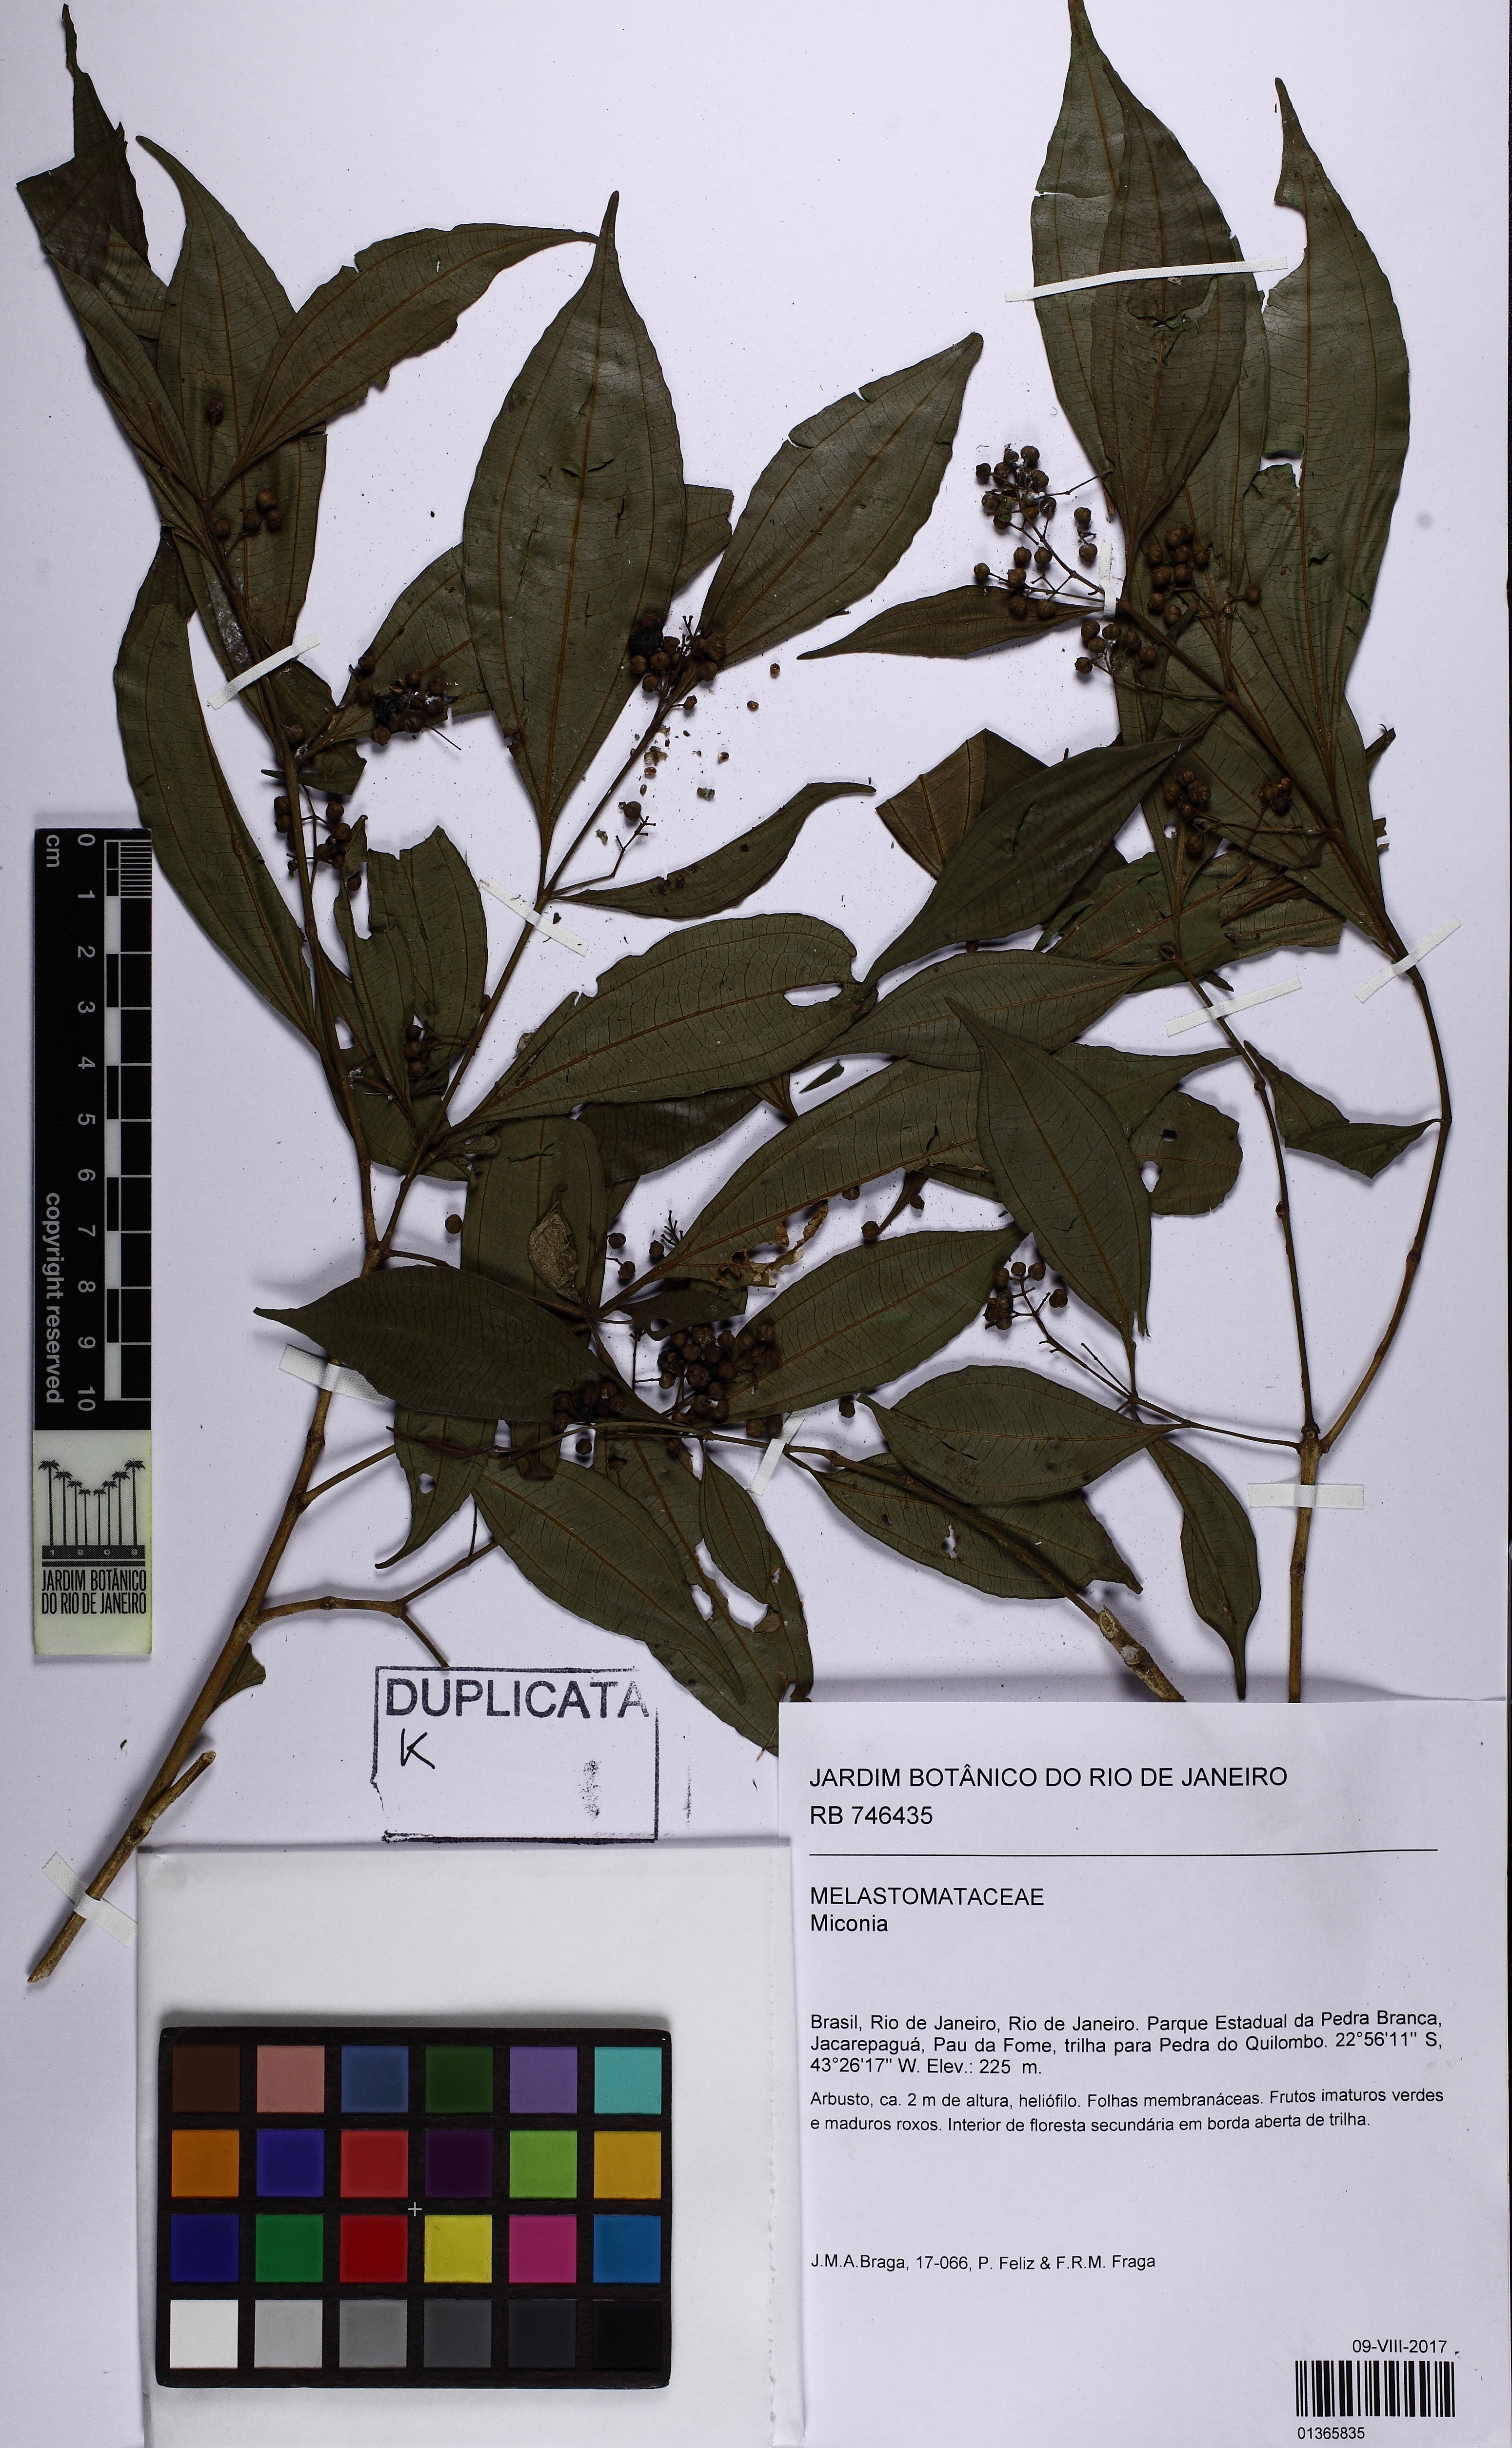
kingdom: Plantae
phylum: Tracheophyta
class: Magnoliopsida
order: Myrtales
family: Melastomataceae
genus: Miconia
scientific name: Miconia tristis
